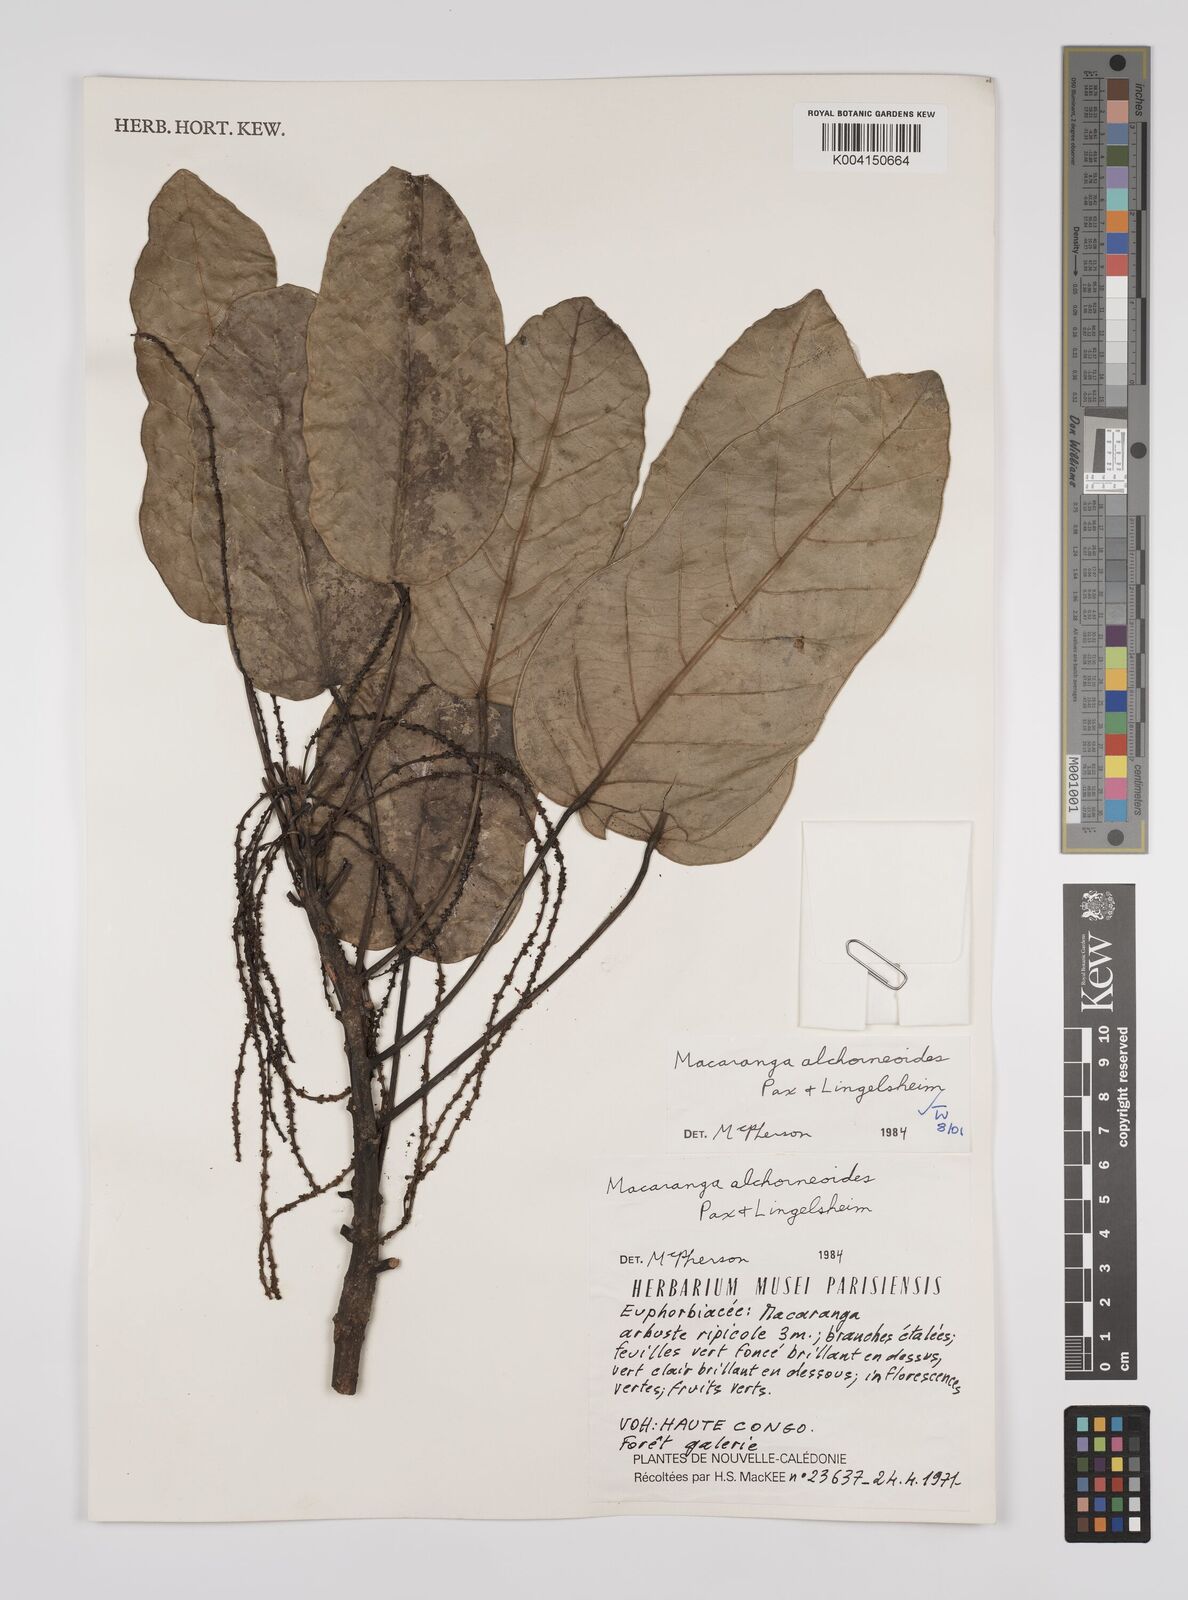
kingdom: Plantae
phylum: Tracheophyta
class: Magnoliopsida
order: Malpighiales
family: Euphorbiaceae
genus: Macaranga
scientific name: Macaranga alchorneoides
